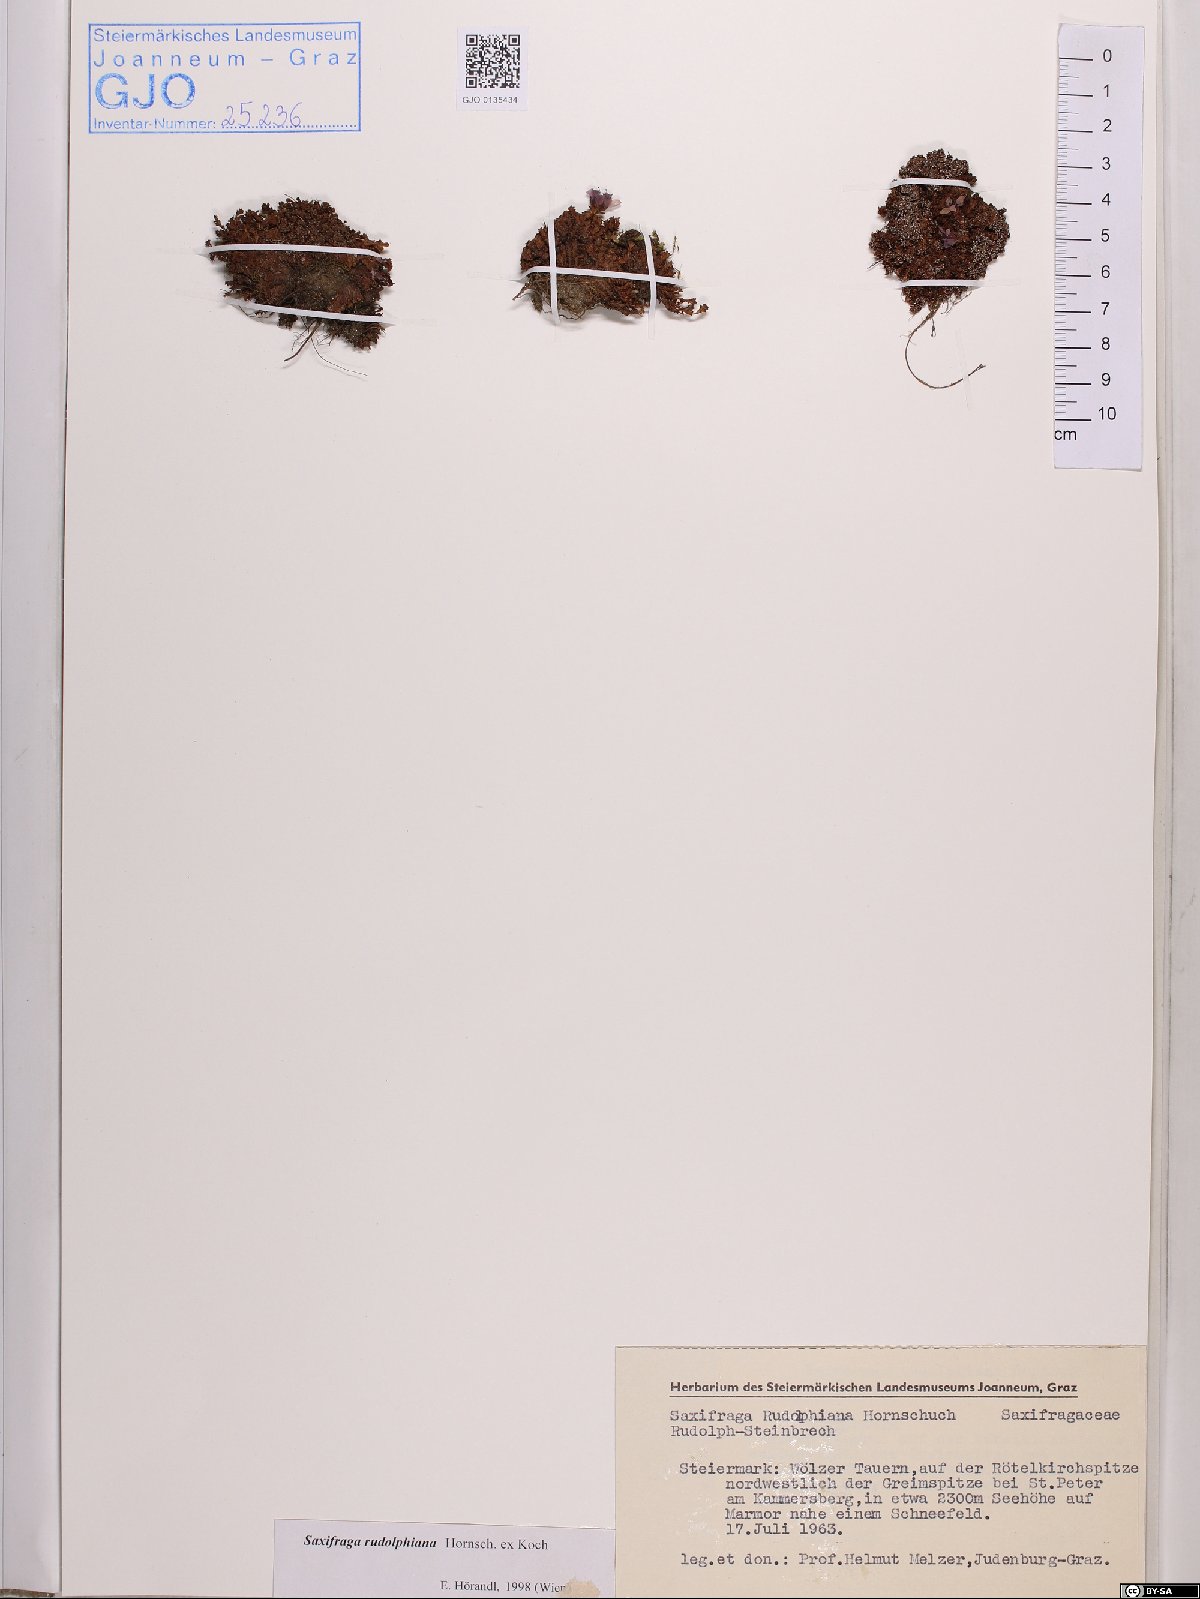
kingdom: Plantae
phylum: Tracheophyta
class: Magnoliopsida
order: Saxifragales
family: Saxifragaceae
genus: Saxifraga
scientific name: Saxifraga oppositifolia
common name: Purple saxifrage
